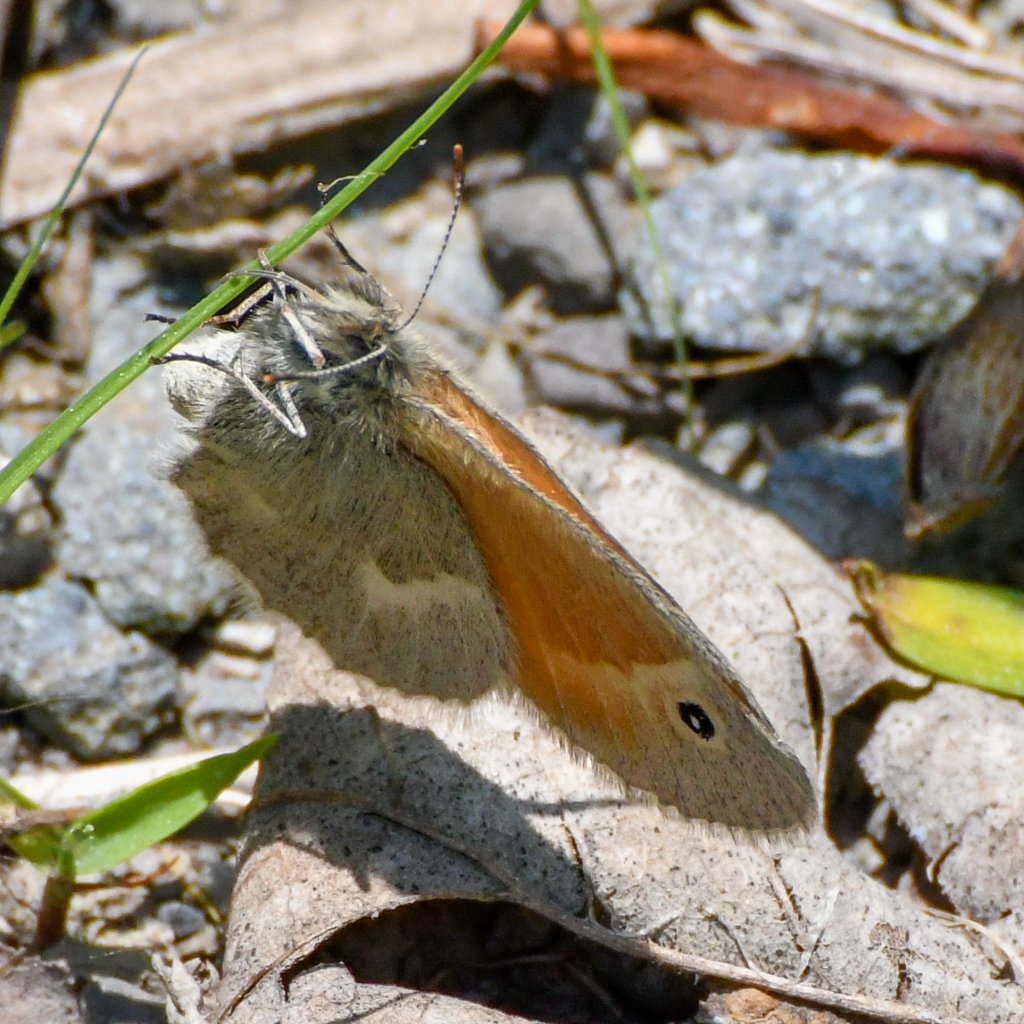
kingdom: Animalia
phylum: Arthropoda
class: Insecta
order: Lepidoptera
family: Nymphalidae
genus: Coenonympha
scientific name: Coenonympha tullia
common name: Large Heath
